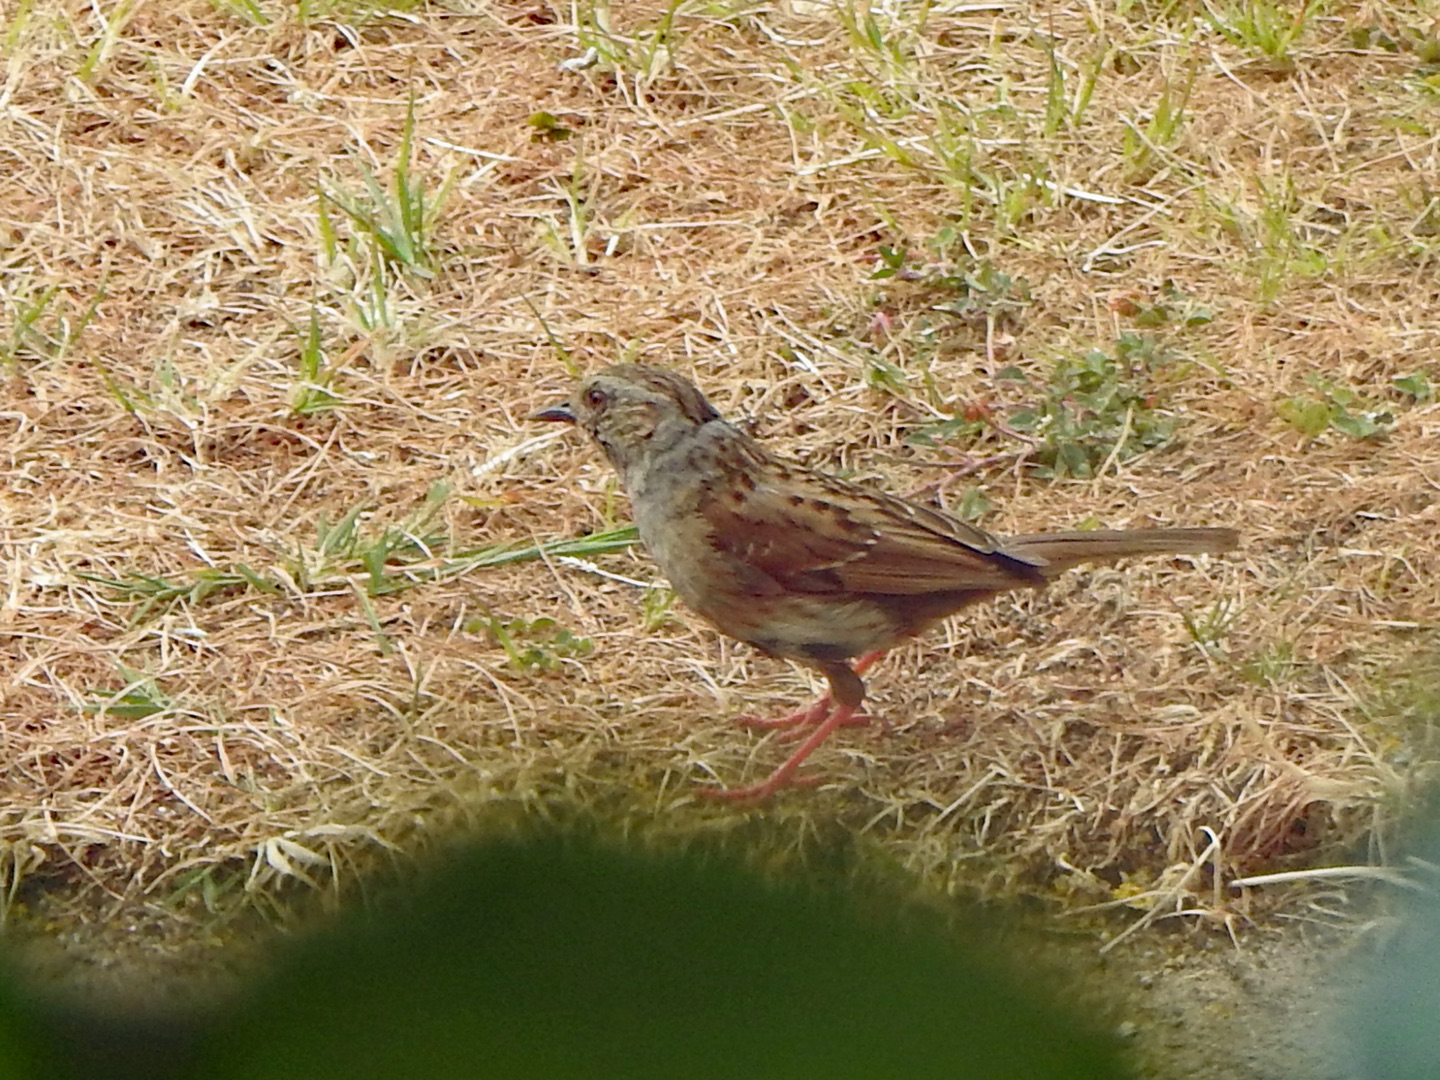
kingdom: Animalia
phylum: Chordata
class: Aves
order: Passeriformes
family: Prunellidae
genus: Prunella
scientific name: Prunella modularis
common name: Jernspurv
